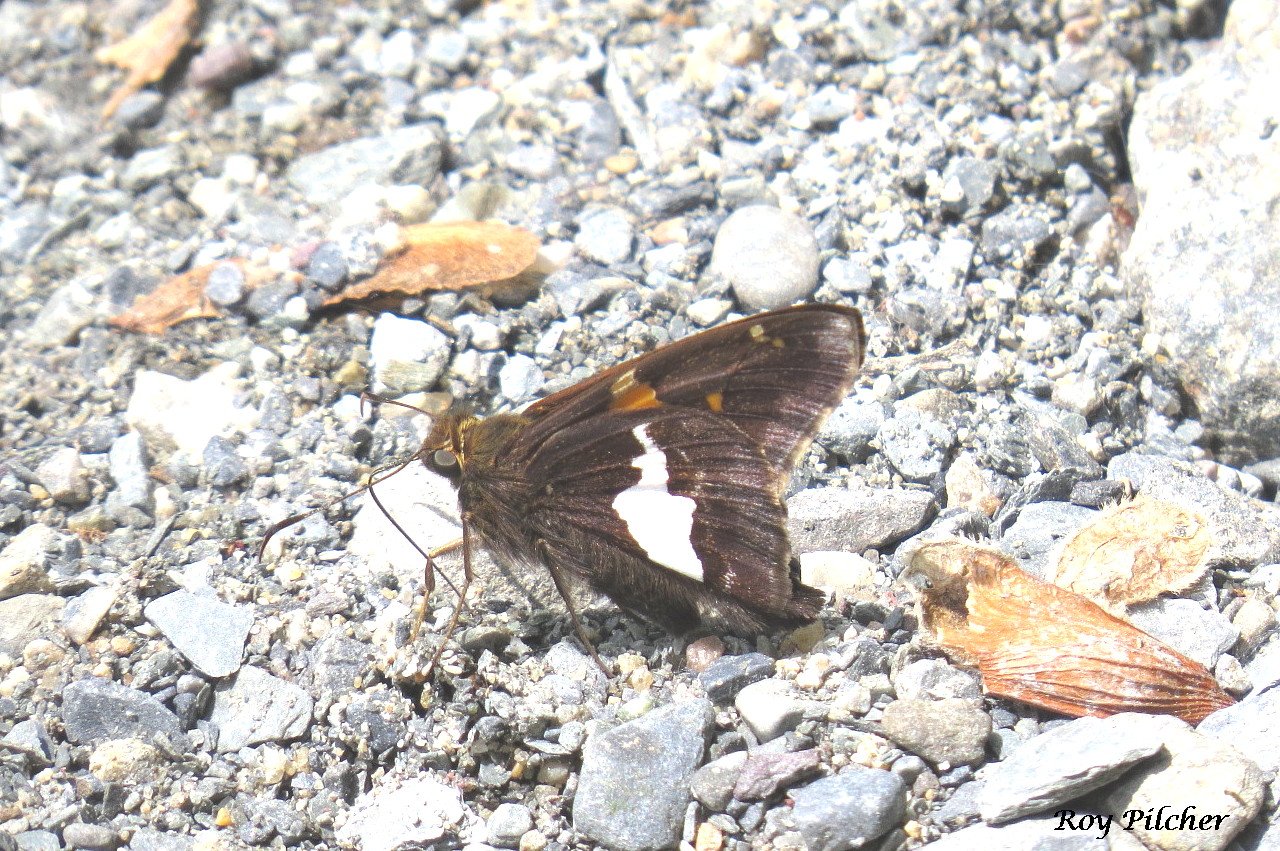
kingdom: Animalia
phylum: Arthropoda
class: Insecta
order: Lepidoptera
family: Hesperiidae
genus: Epargyreus
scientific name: Epargyreus clarus
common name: Silver-spotted Skipper
